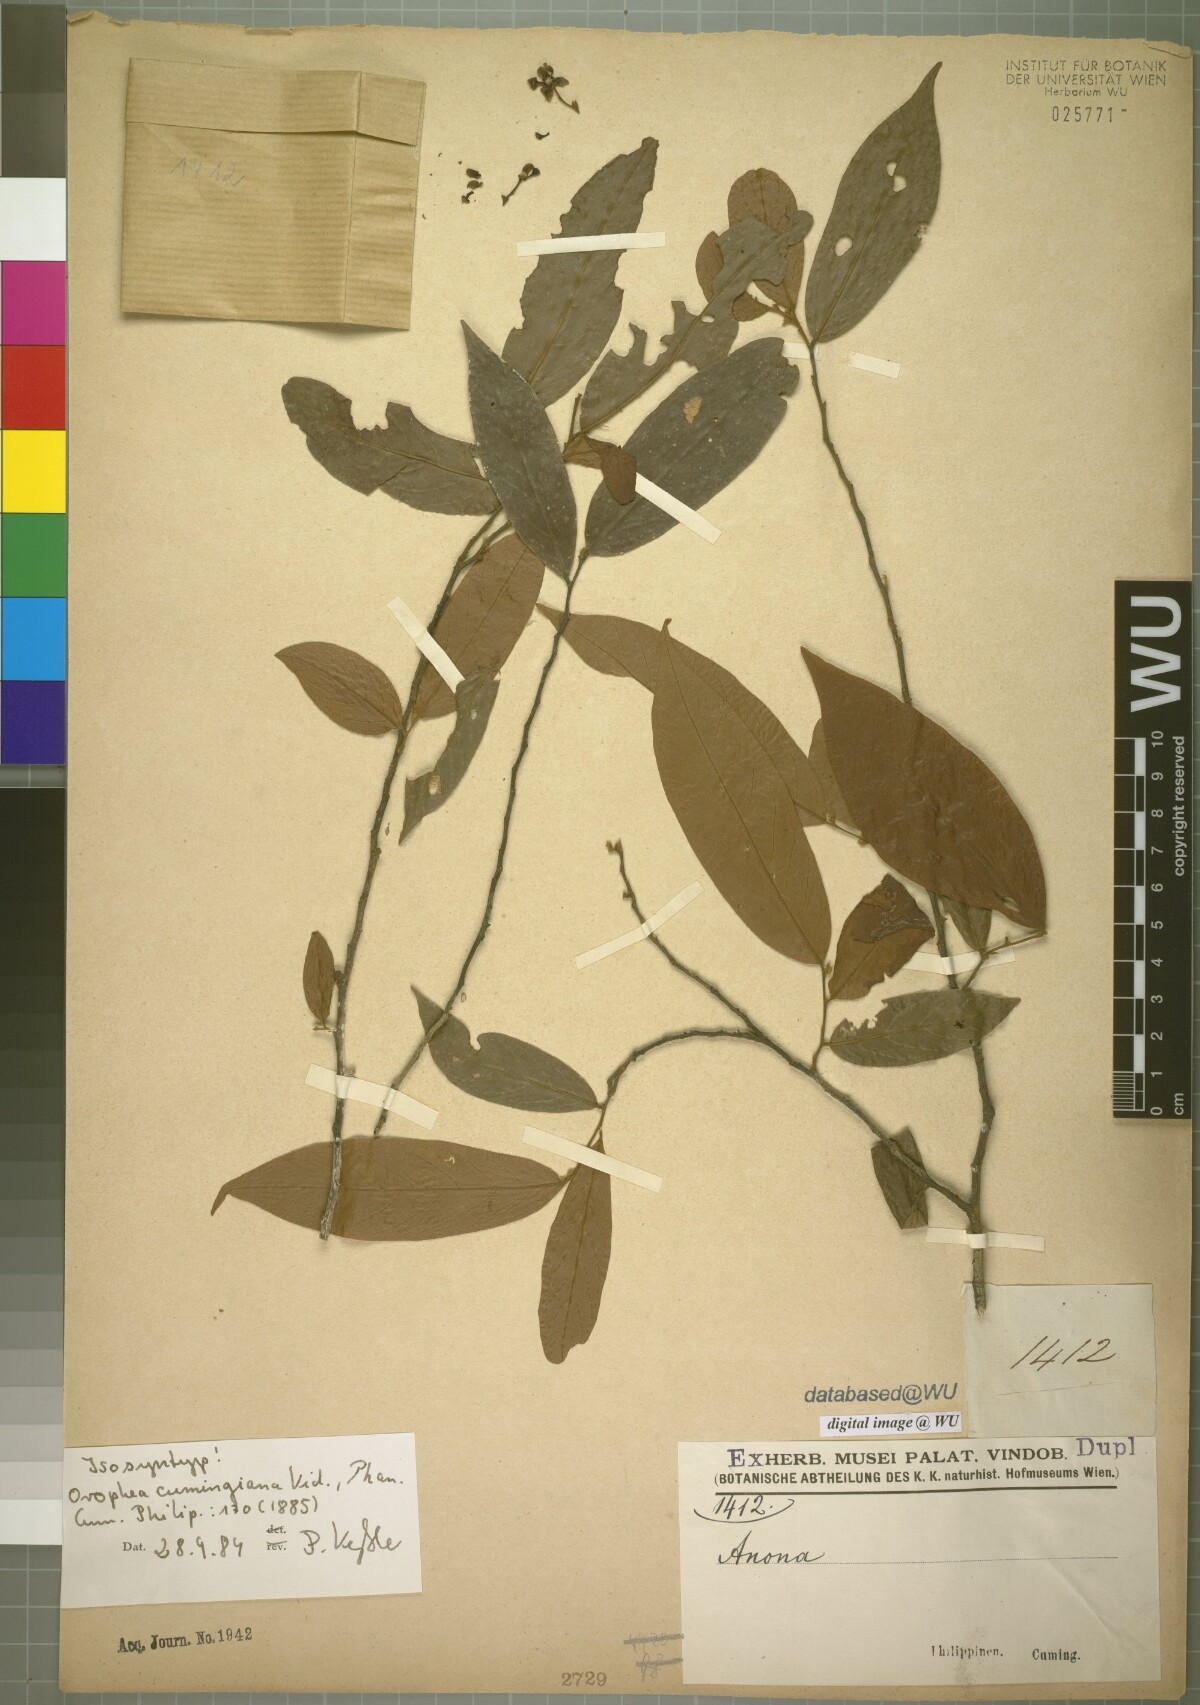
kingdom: Plantae
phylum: Tracheophyta
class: Magnoliopsida
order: Magnoliales
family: Annonaceae
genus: Orophea
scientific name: Orophea cumingiana
